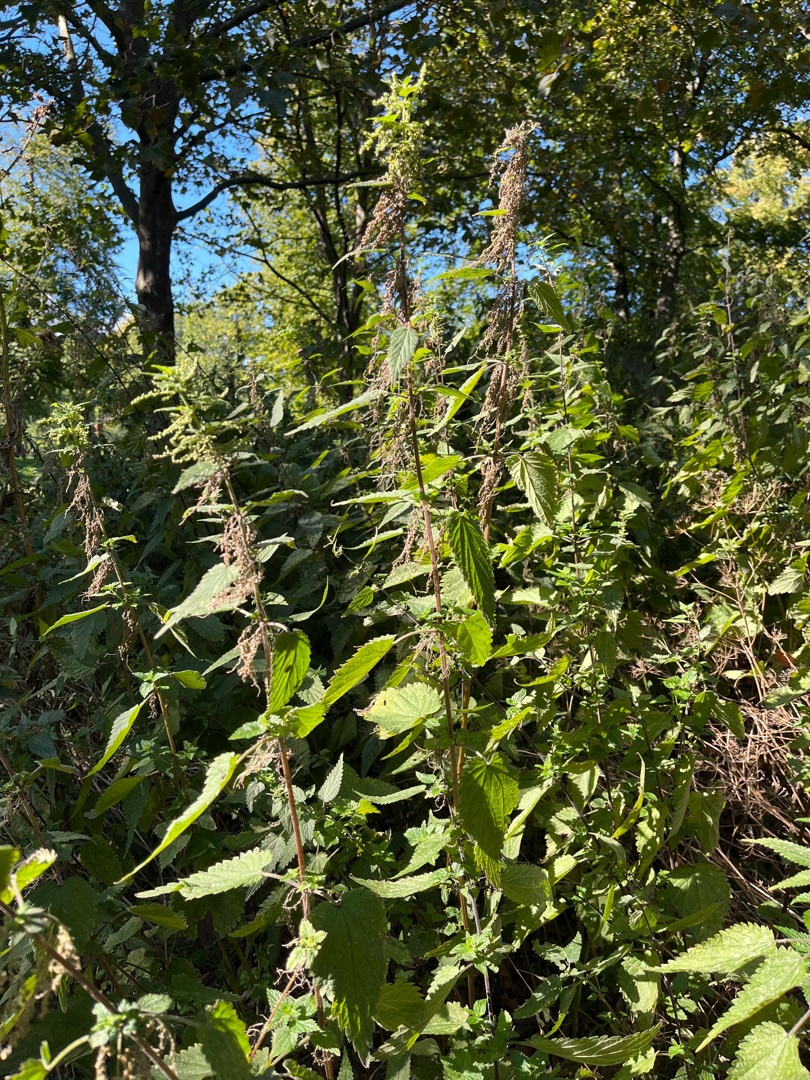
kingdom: Plantae
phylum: Tracheophyta
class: Magnoliopsida
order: Rosales
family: Urticaceae
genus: Urtica
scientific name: Urtica dioica
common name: Stor nælde
